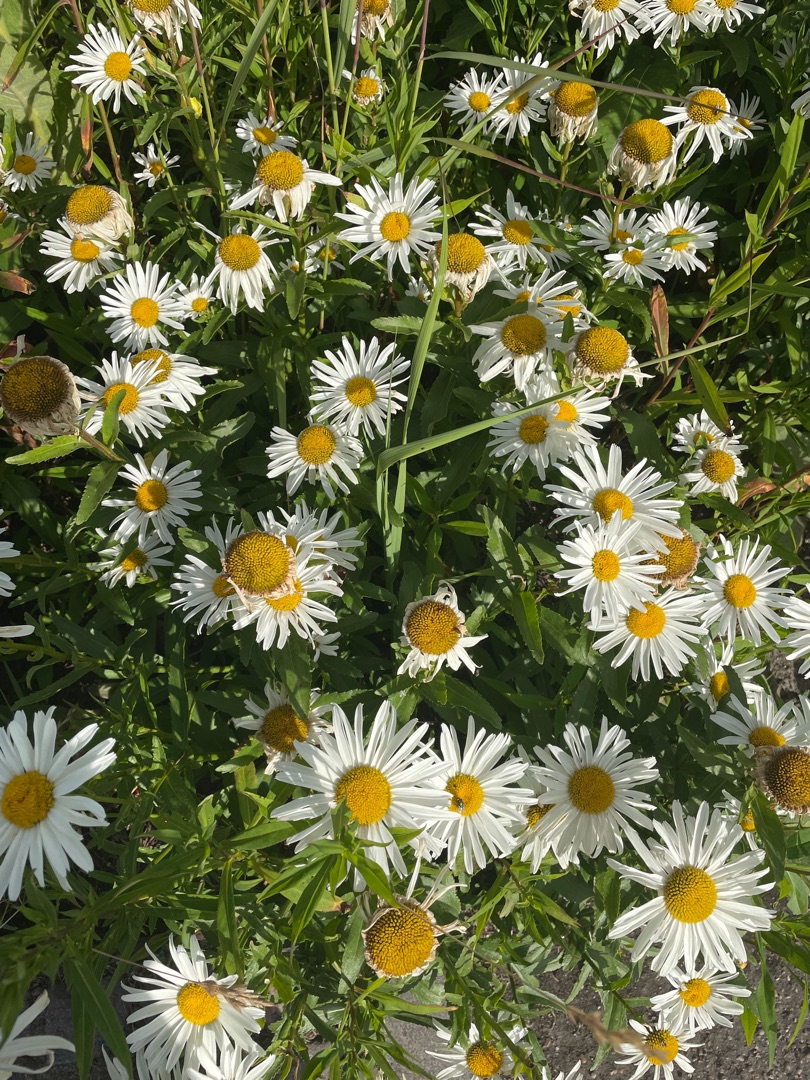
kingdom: Plantae
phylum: Tracheophyta
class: Magnoliopsida
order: Asterales
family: Asteraceae
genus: Leucanthemum
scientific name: Leucanthemum superbum
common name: Kæmpe-margerit
